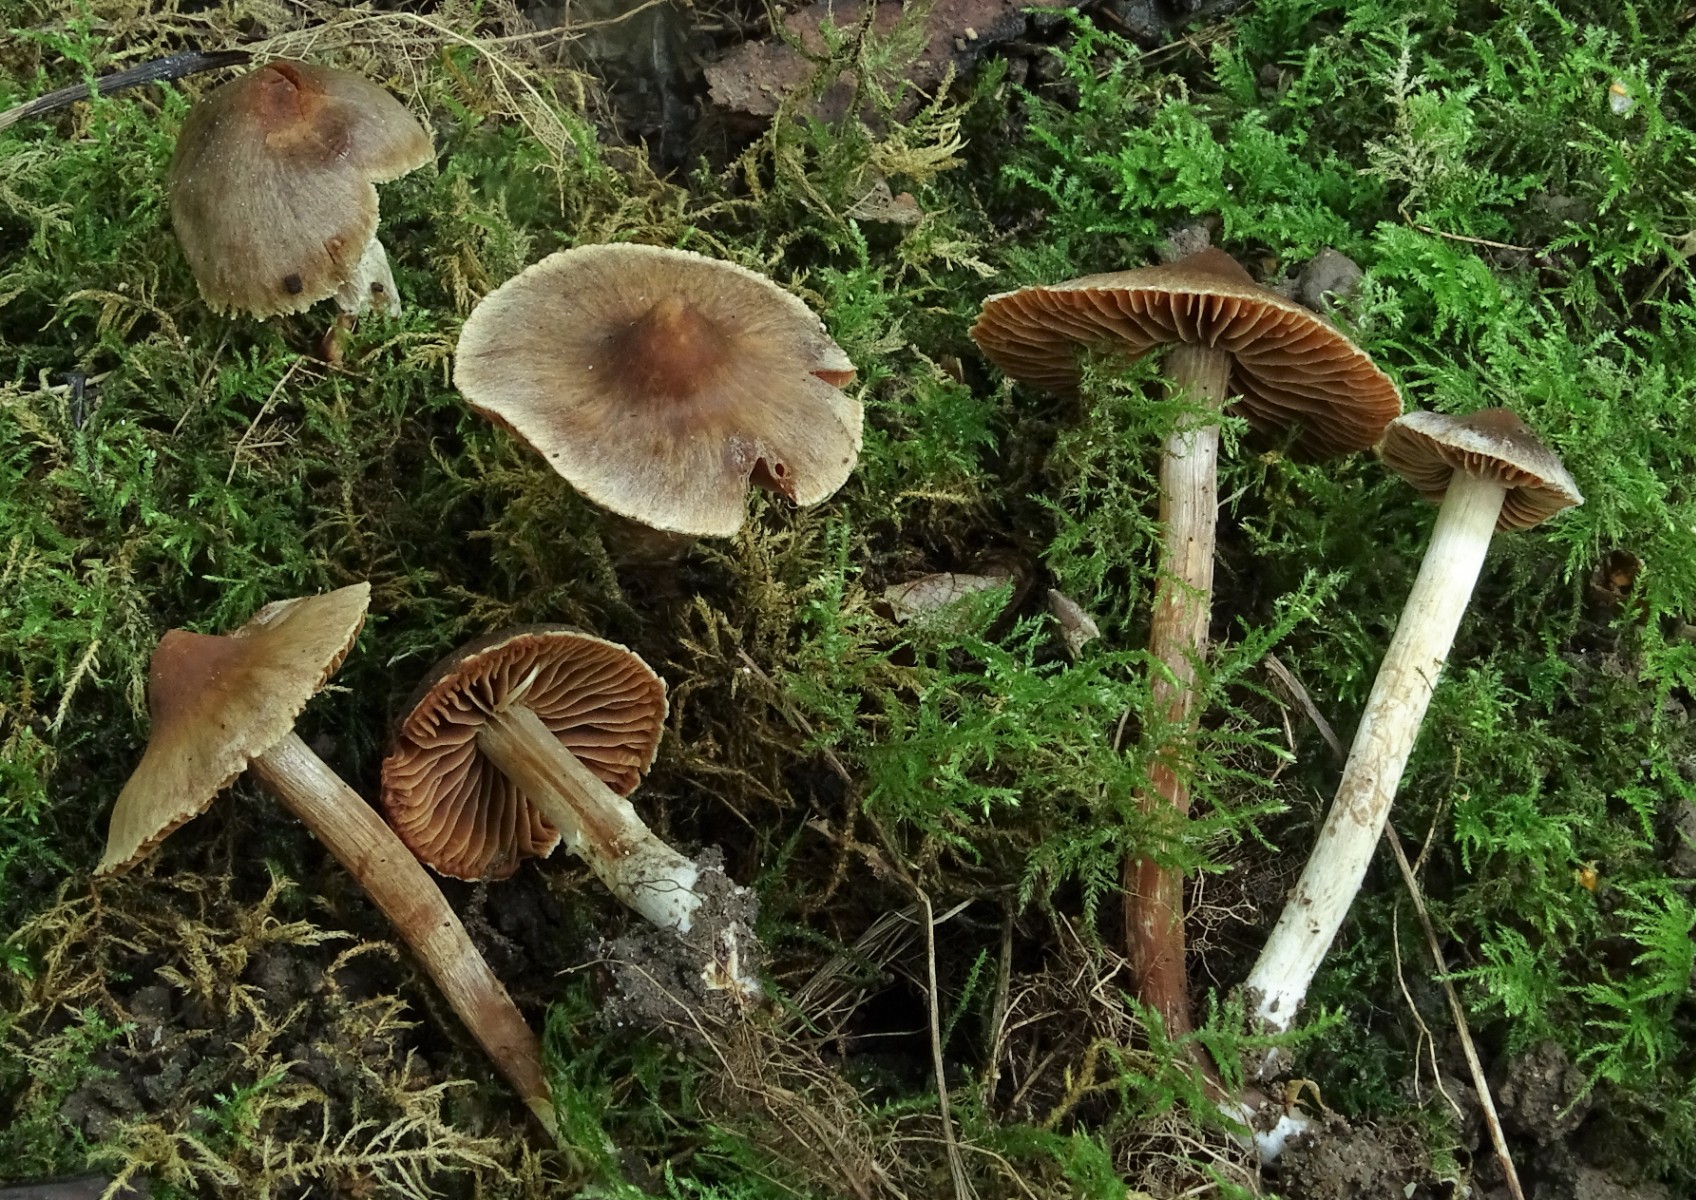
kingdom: Fungi
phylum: Basidiomycota
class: Agaricomycetes
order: Agaricales
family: Cortinariaceae
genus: Cortinarius
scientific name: Cortinarius flexibilifolius
